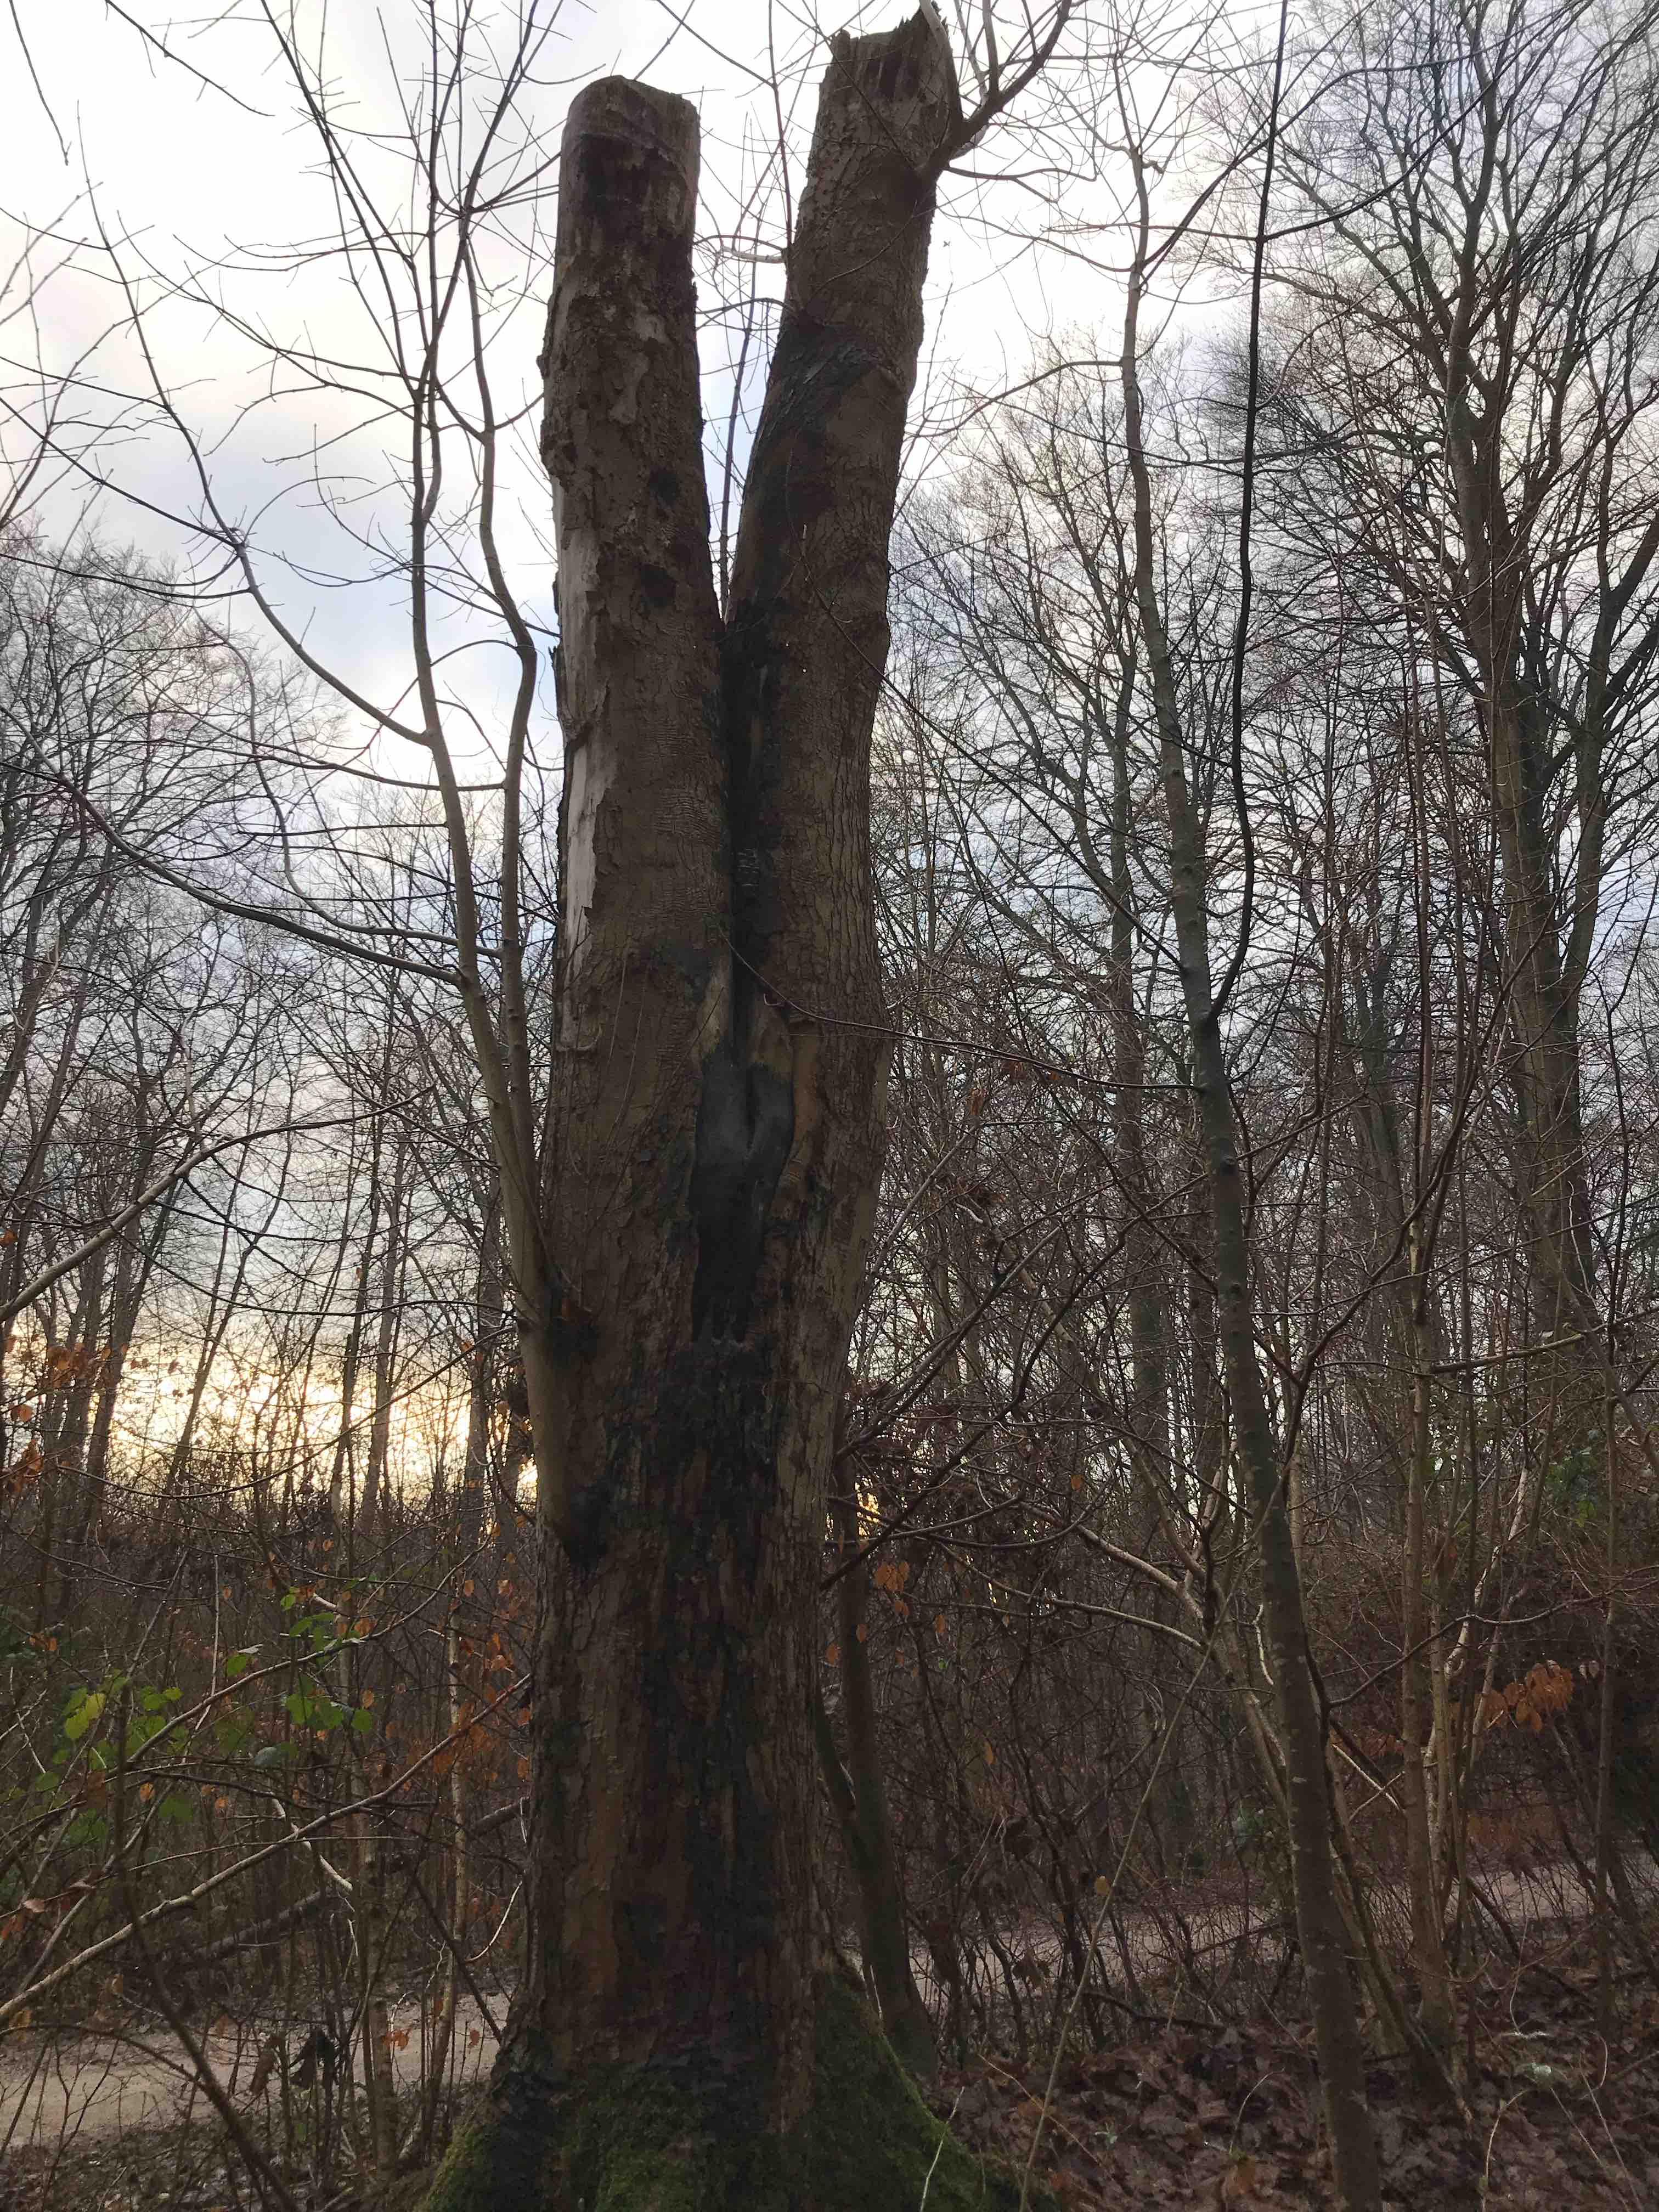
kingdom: Fungi
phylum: Basidiomycota
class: Agaricomycetes
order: Agaricales
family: Pleurotaceae
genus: Pleurotus
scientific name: Pleurotus ostreatus
